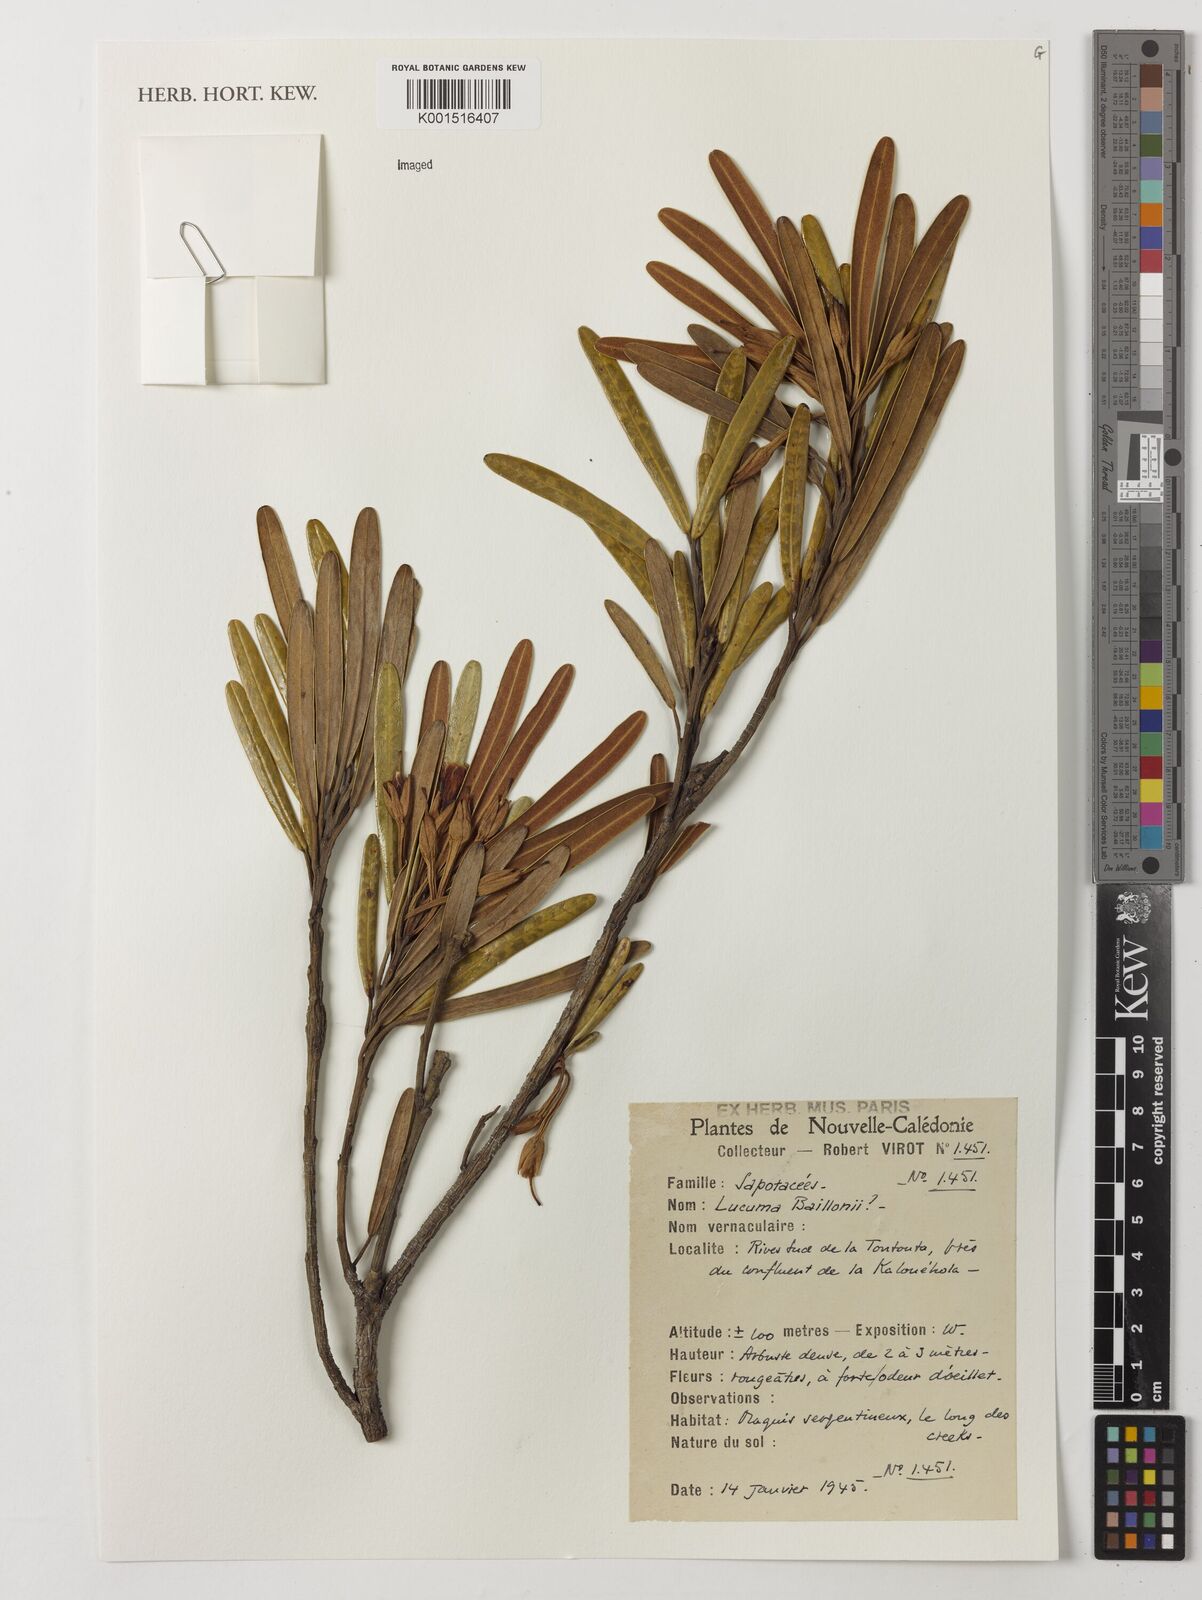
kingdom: Plantae
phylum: Tracheophyta
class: Magnoliopsida
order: Ericales
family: Sapotaceae
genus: Planchonella
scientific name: Planchonella baillonii
